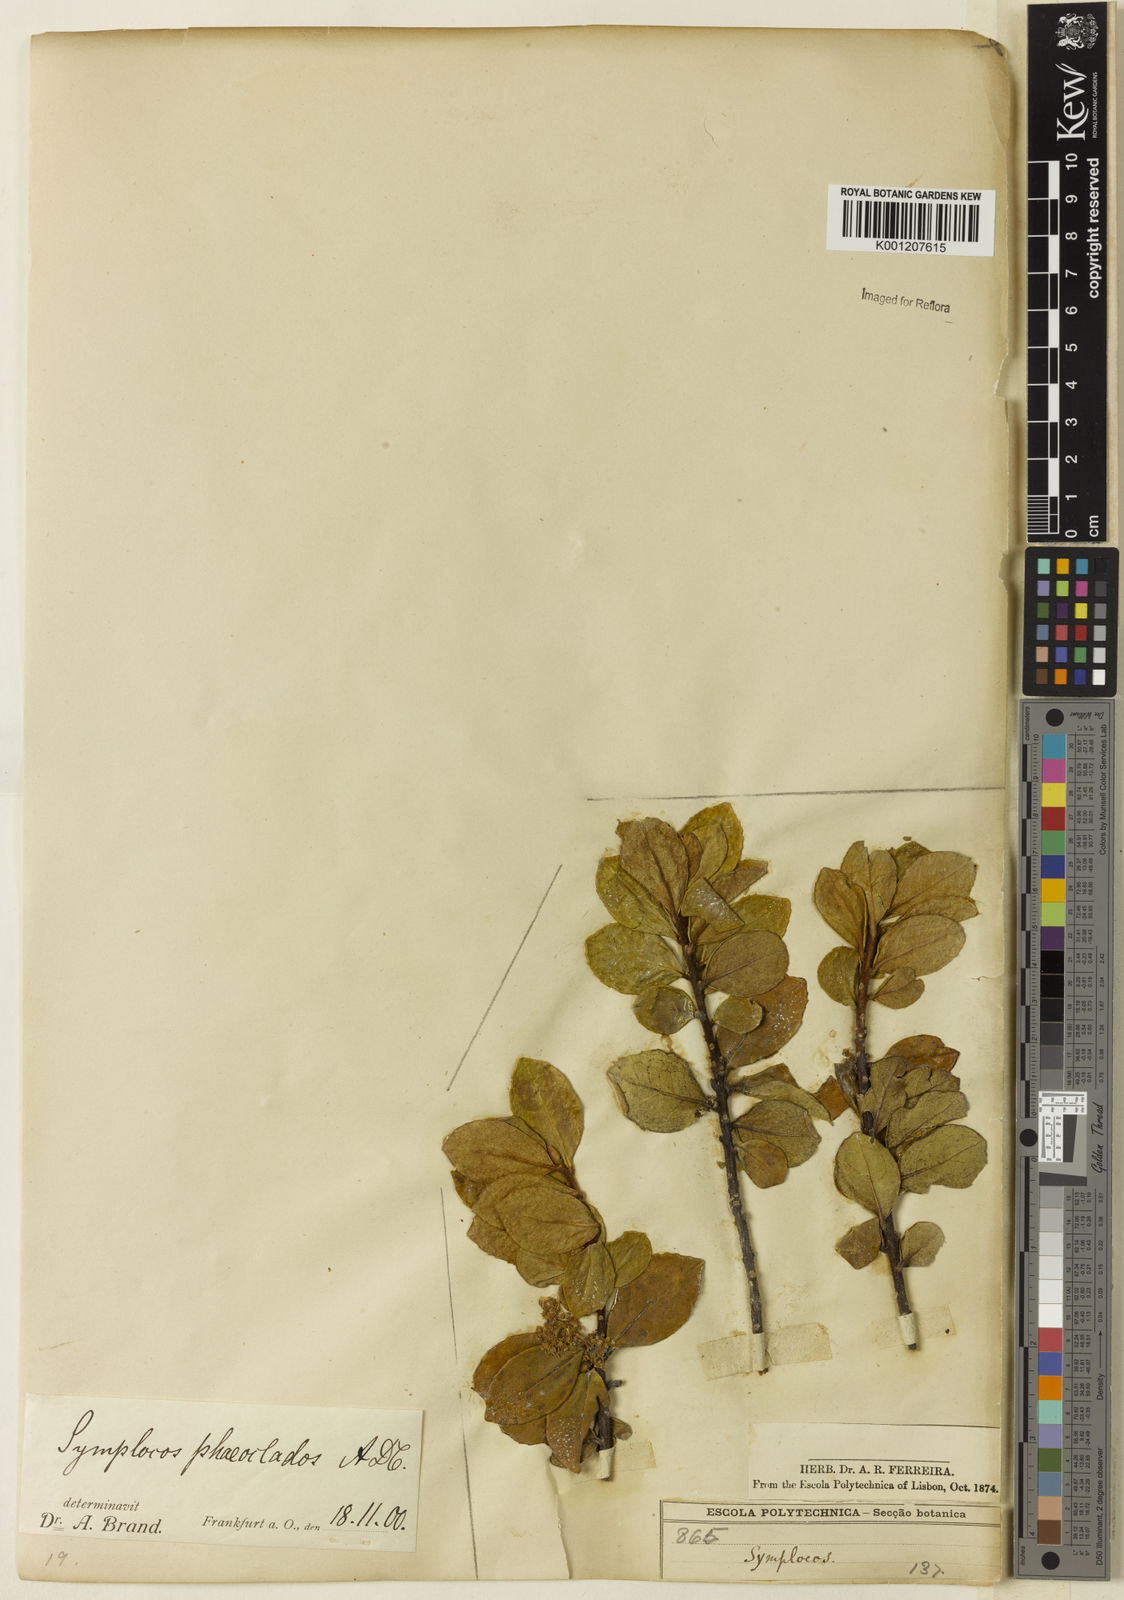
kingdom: Plantae
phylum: Tracheophyta
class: Magnoliopsida
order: Ericales
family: Symplocaceae
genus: Symplocos
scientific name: Symplocos arbutifolia
